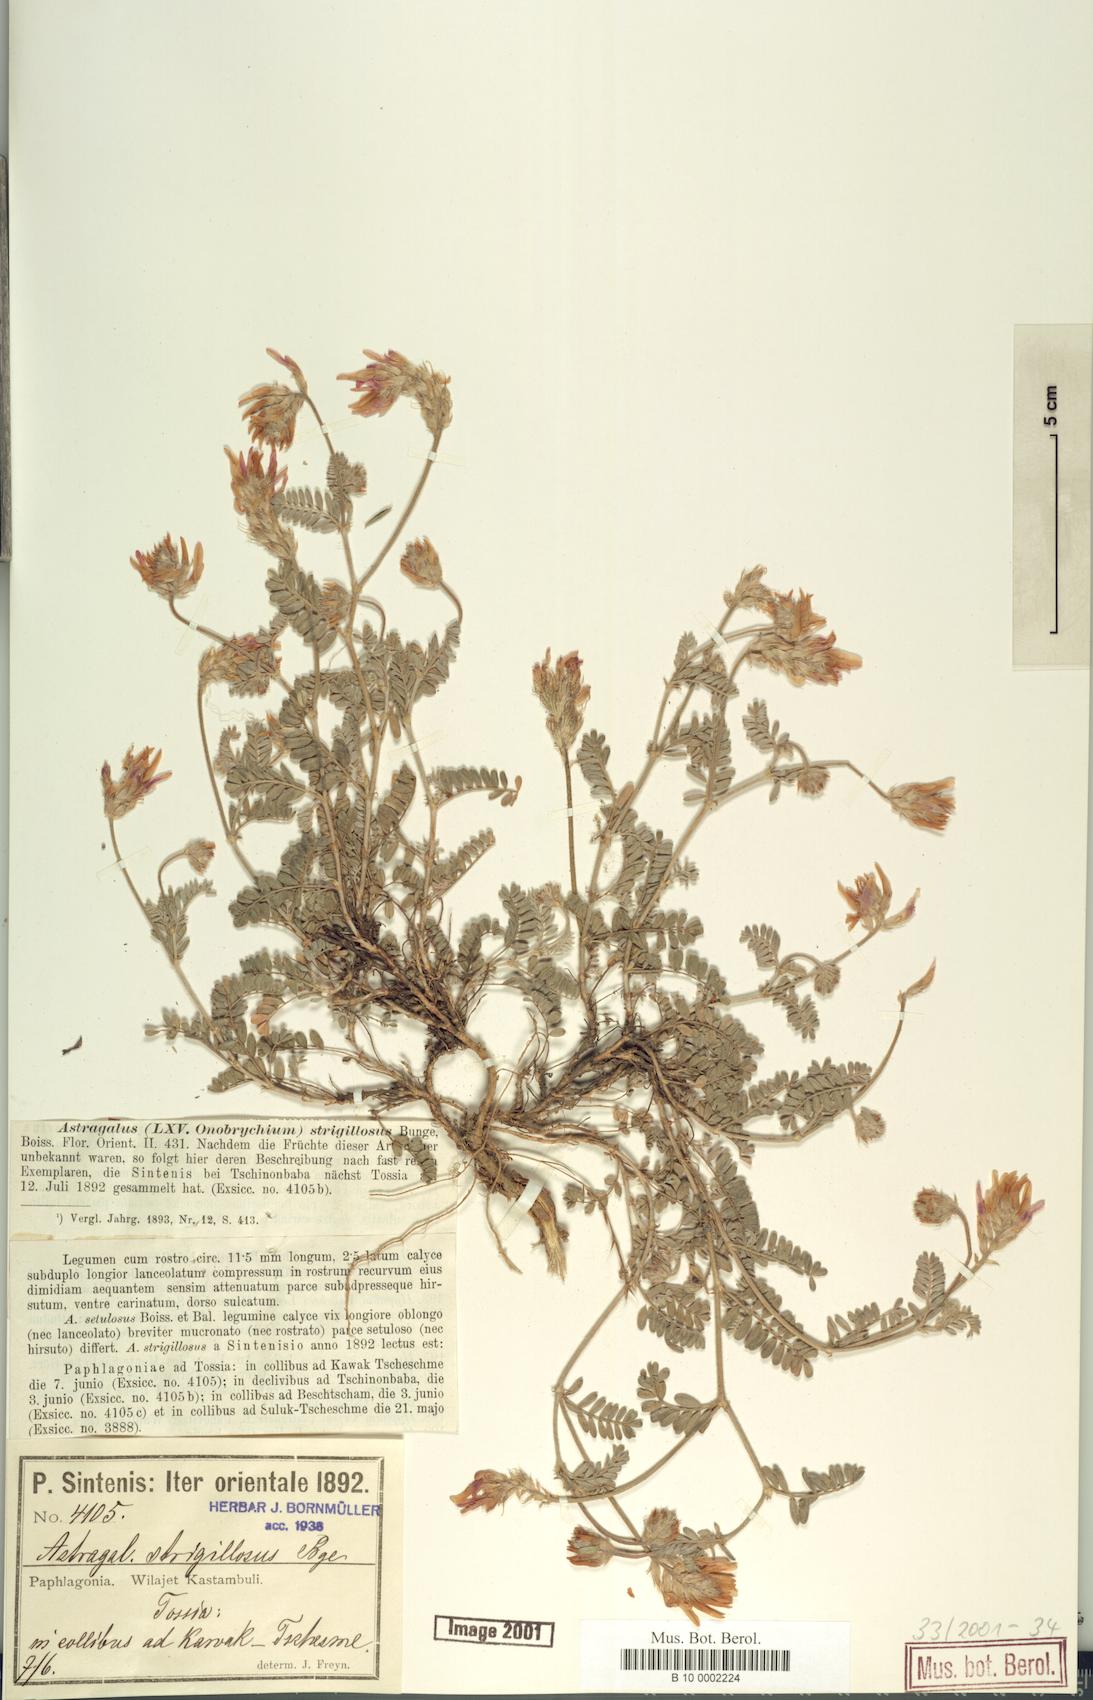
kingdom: Plantae
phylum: Tracheophyta
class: Magnoliopsida
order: Fabales
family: Fabaceae
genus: Astragalus
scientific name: Astragalus strigillosus
